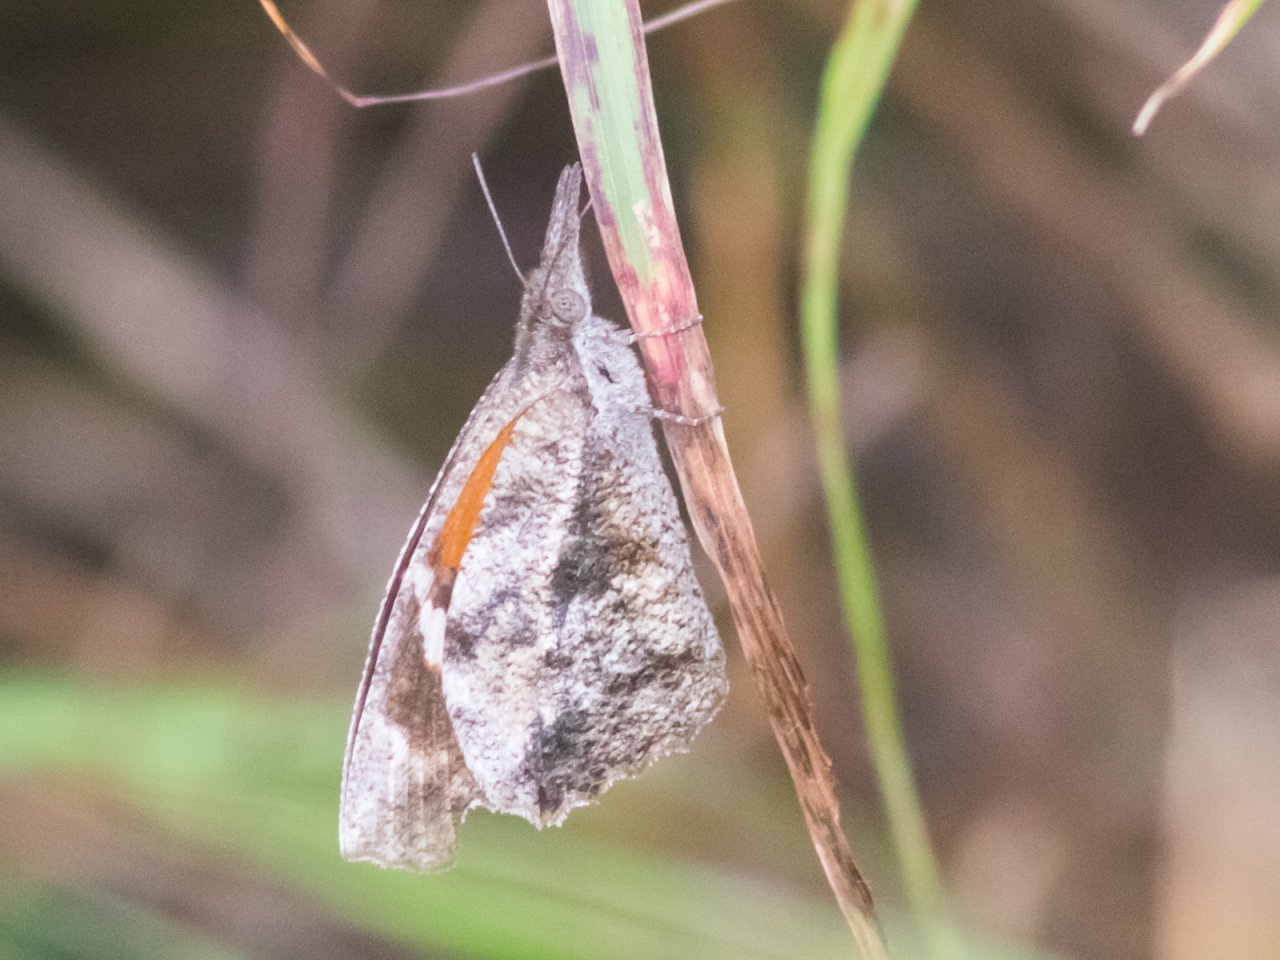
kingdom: Animalia
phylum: Arthropoda
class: Insecta
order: Lepidoptera
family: Nymphalidae
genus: Libytheana
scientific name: Libytheana carinenta
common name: American Snout
